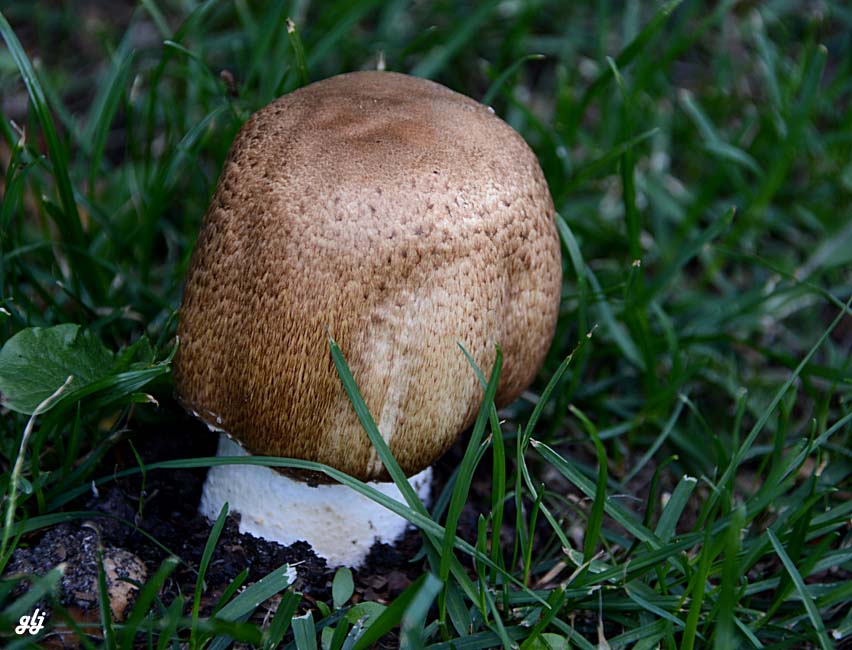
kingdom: Fungi
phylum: Basidiomycota
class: Agaricomycetes
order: Agaricales
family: Agaricaceae
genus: Agaricus
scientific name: Agaricus augustus
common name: prægtig champignon
